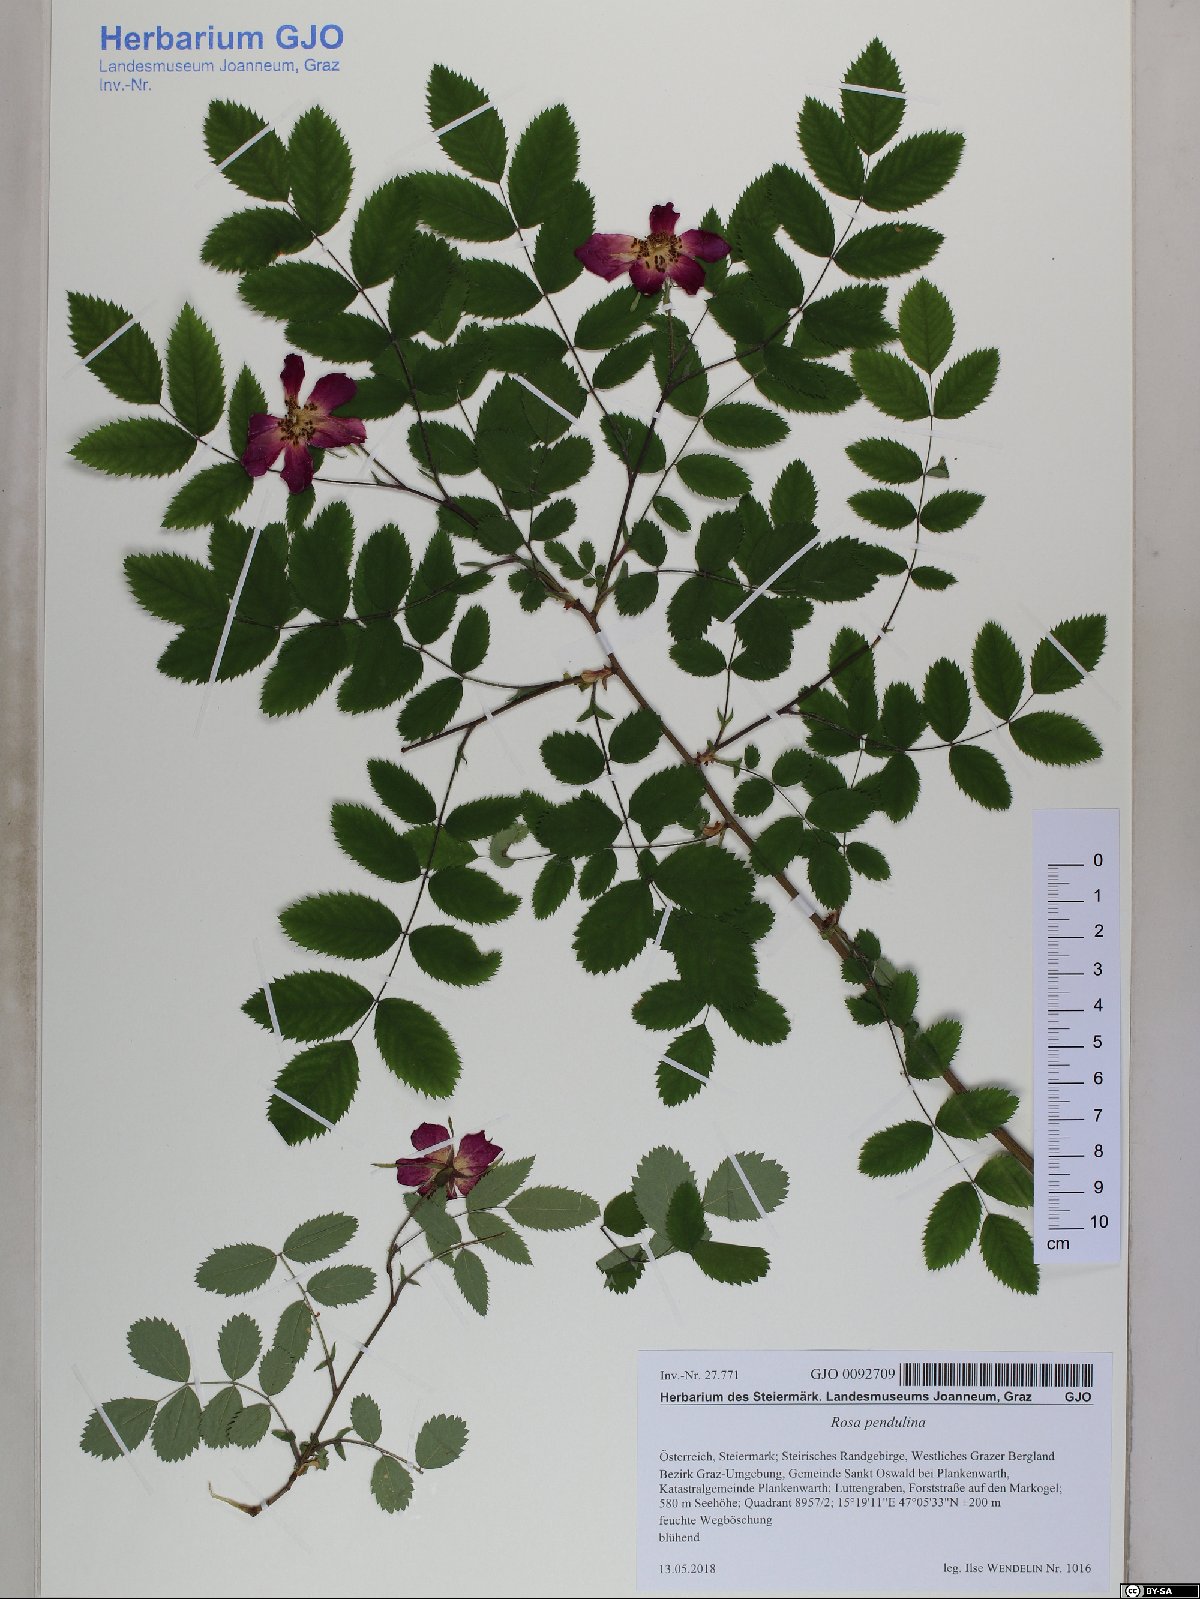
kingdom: Plantae
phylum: Tracheophyta
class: Magnoliopsida
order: Rosales
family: Rosaceae
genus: Rosa
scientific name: Rosa pendulina
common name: Alpine rose
